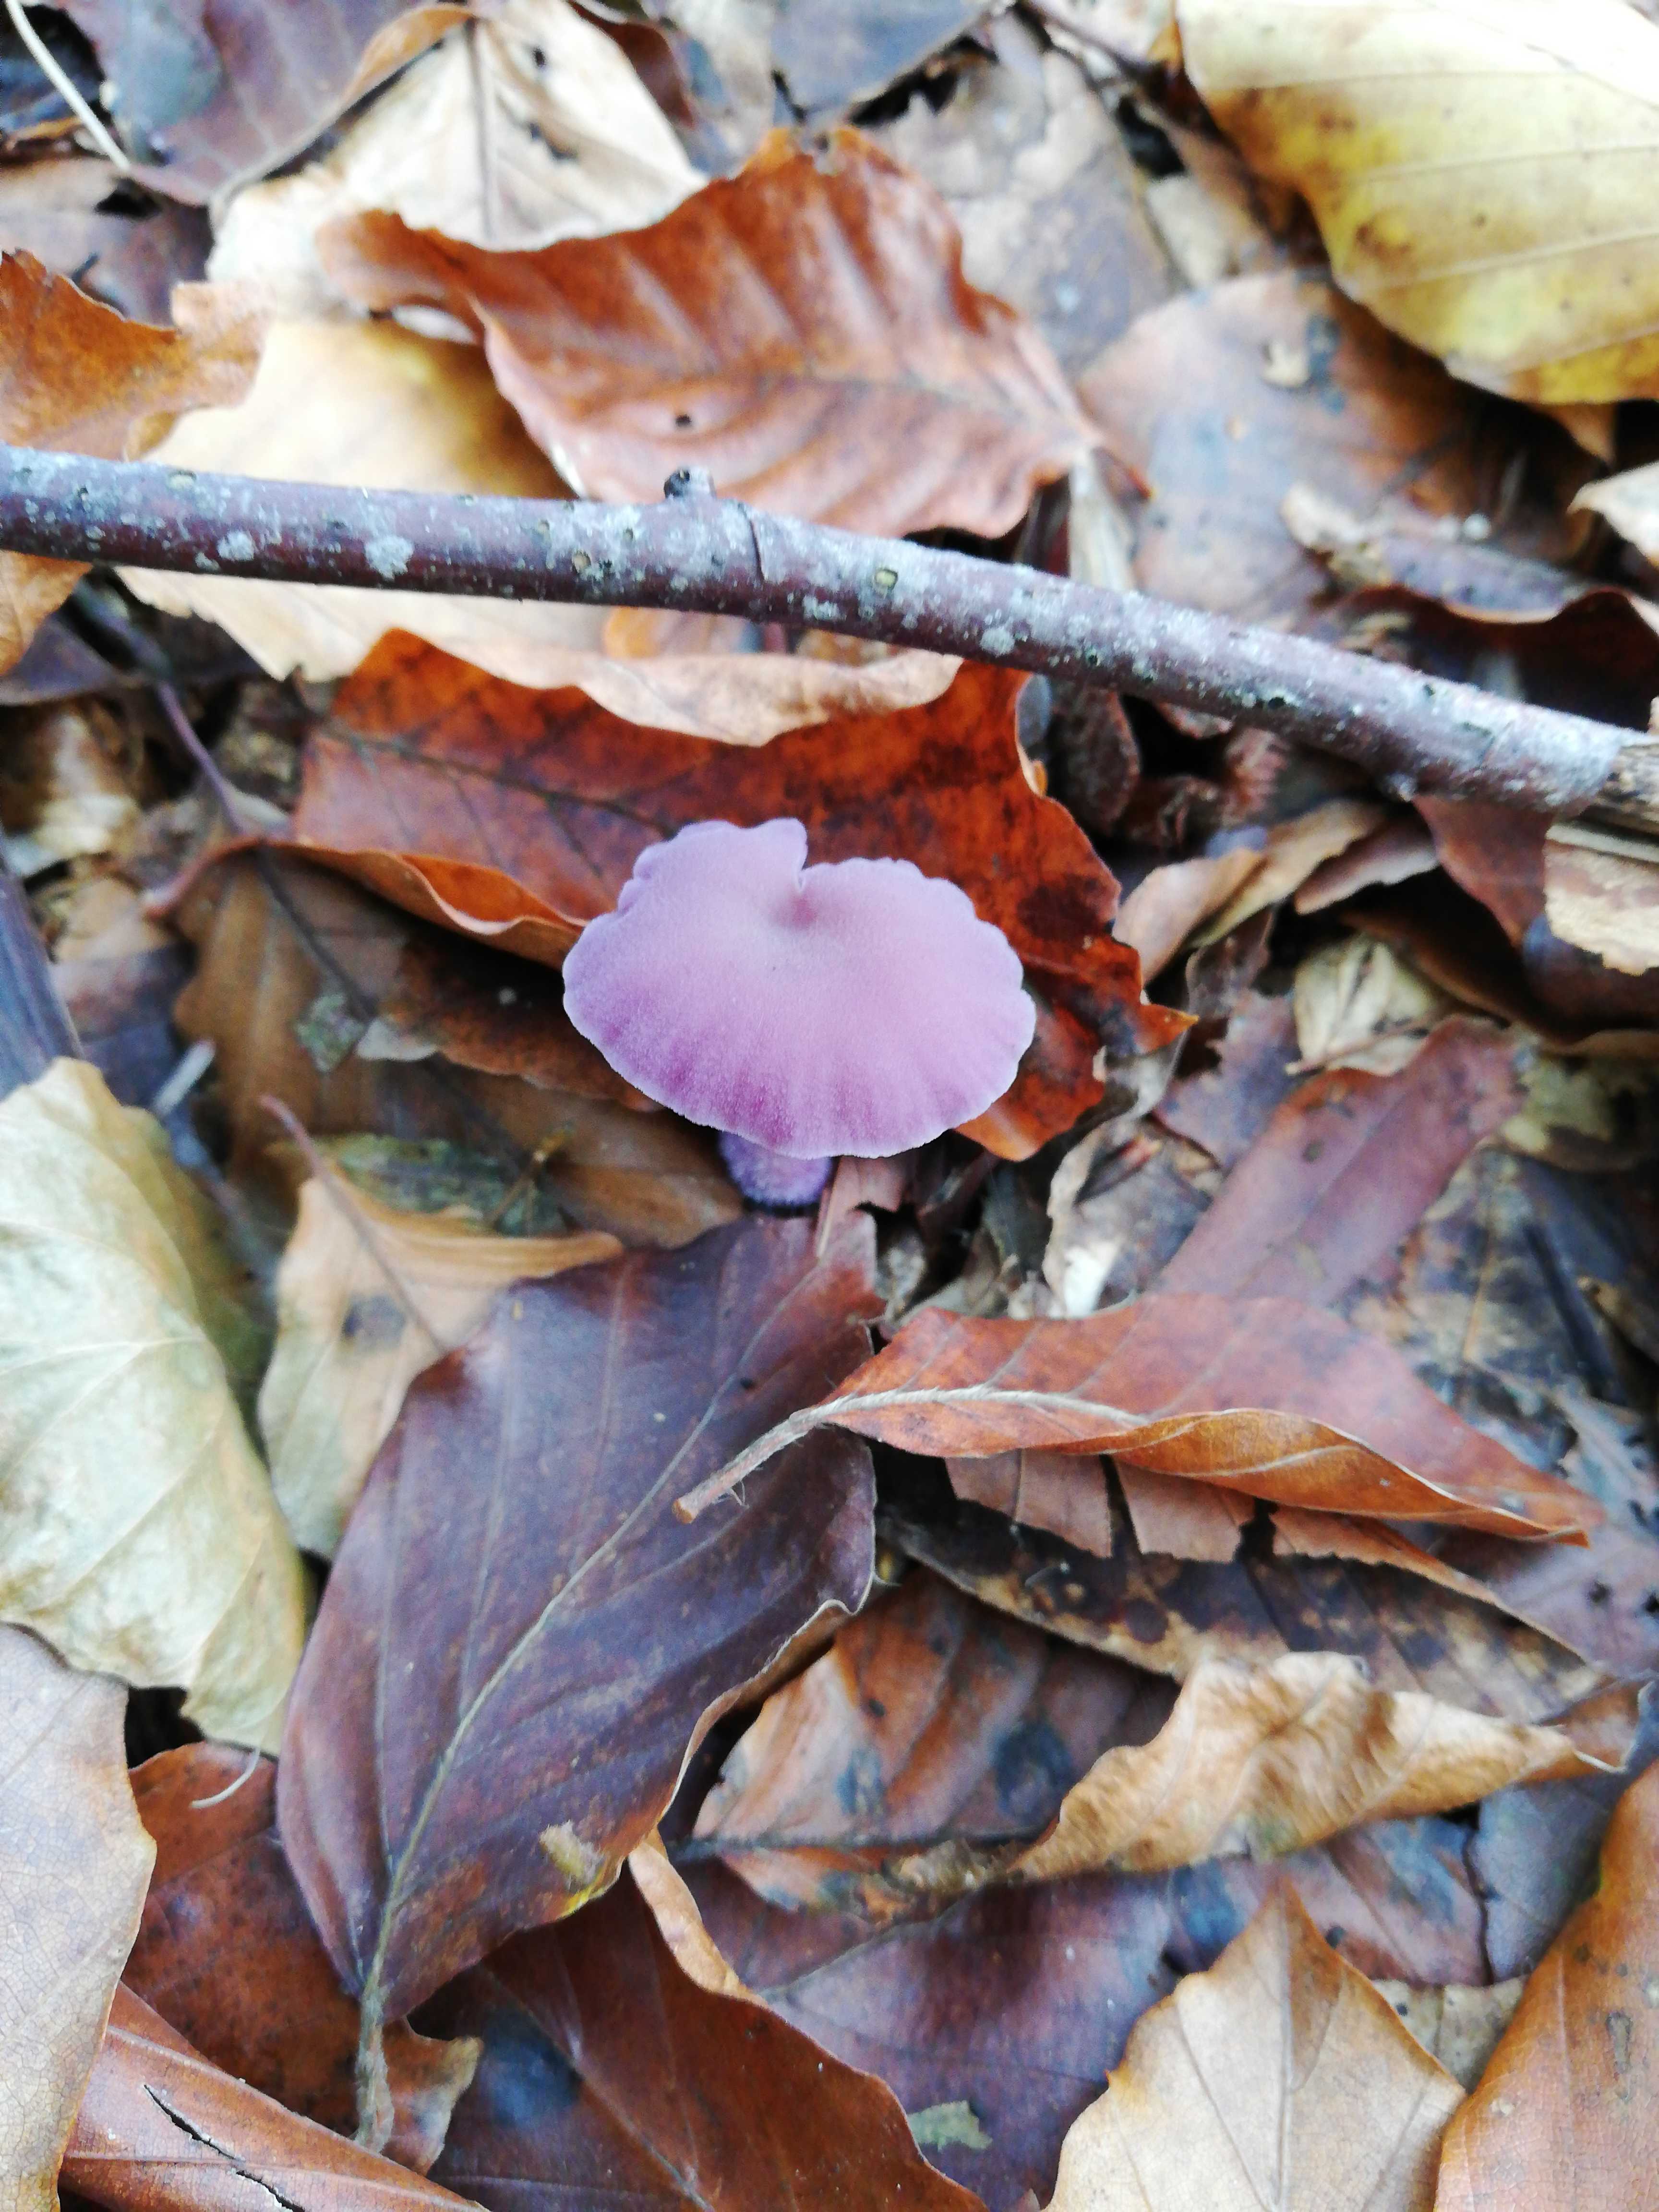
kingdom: Fungi
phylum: Basidiomycota
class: Agaricomycetes
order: Agaricales
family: Hydnangiaceae
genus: Laccaria
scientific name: Laccaria amethystina
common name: violet ametysthat
